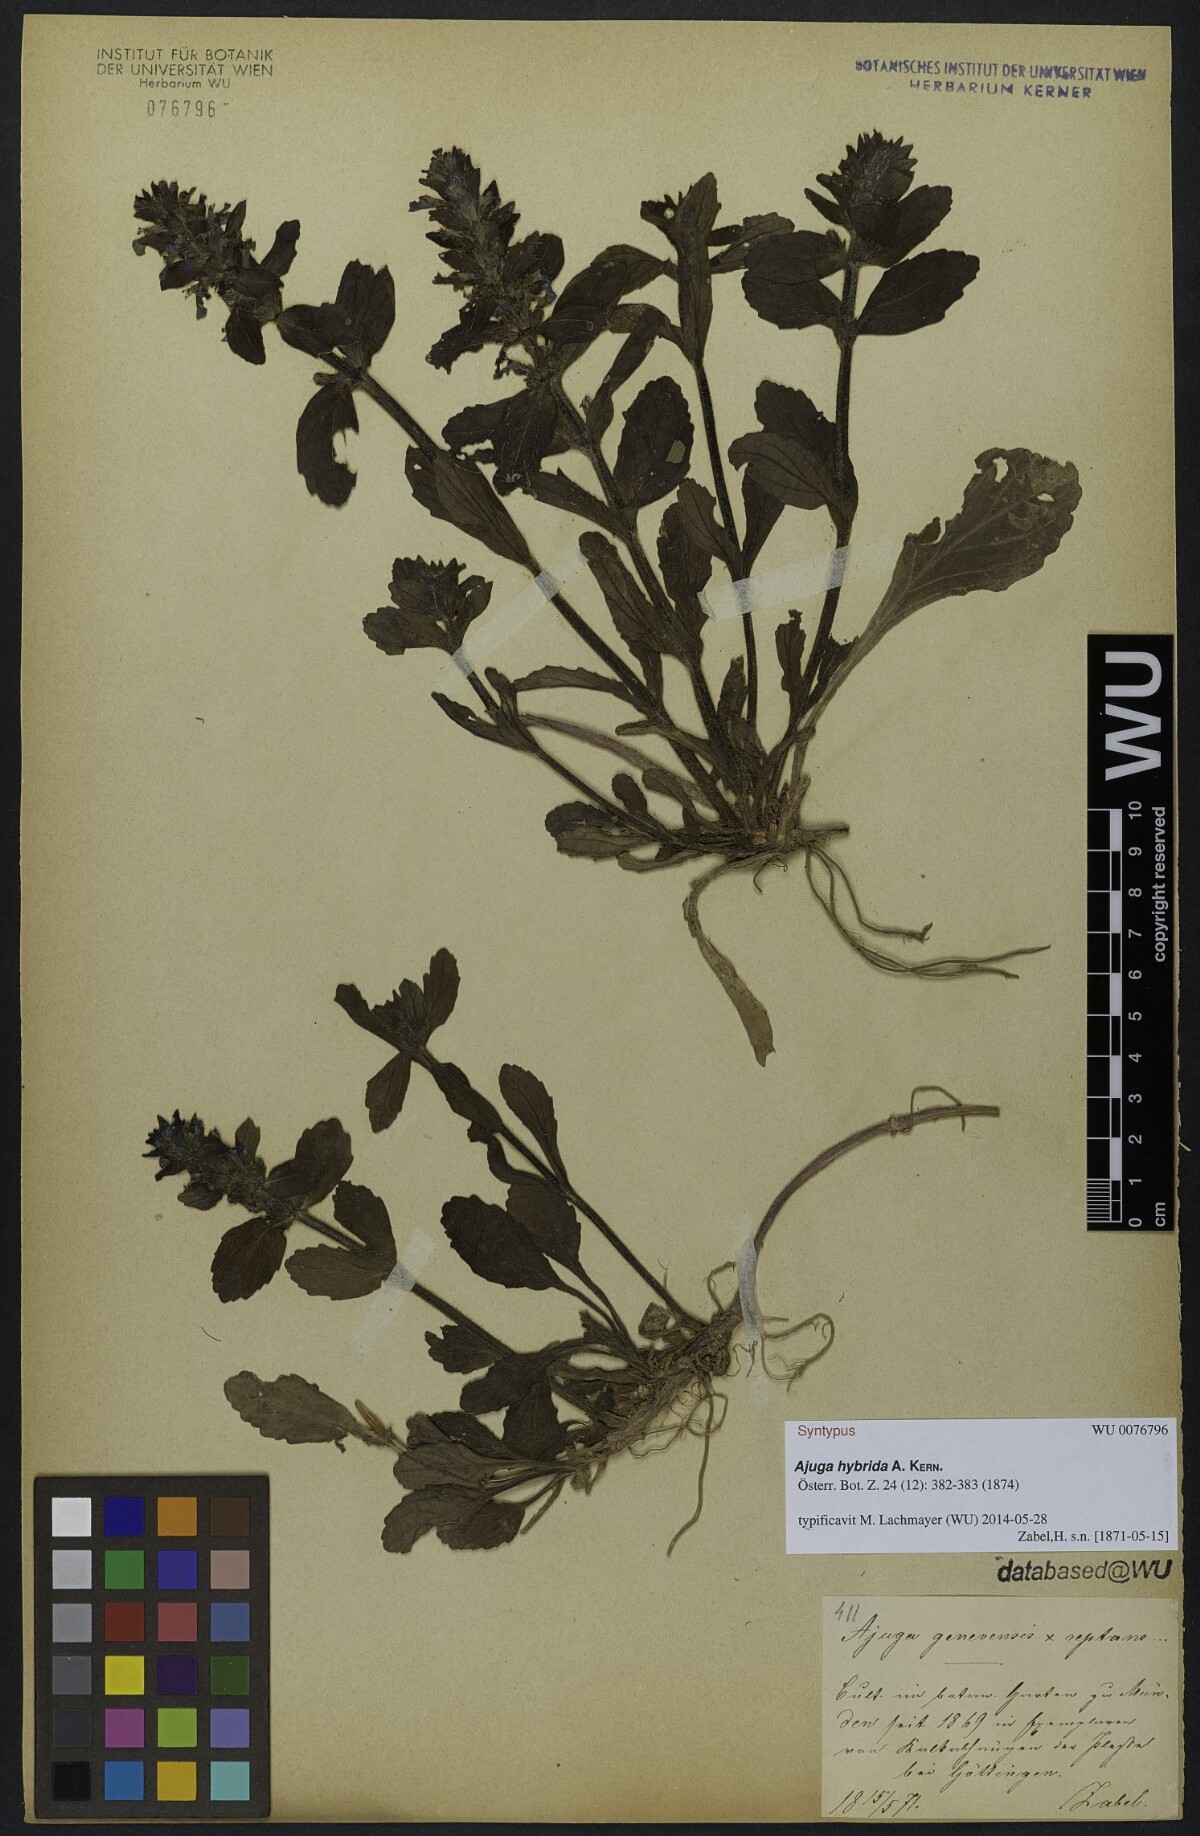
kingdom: Plantae
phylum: Tracheophyta
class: Magnoliopsida
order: Lamiales
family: Lamiaceae
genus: Ajuga
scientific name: Ajuga hybrida
